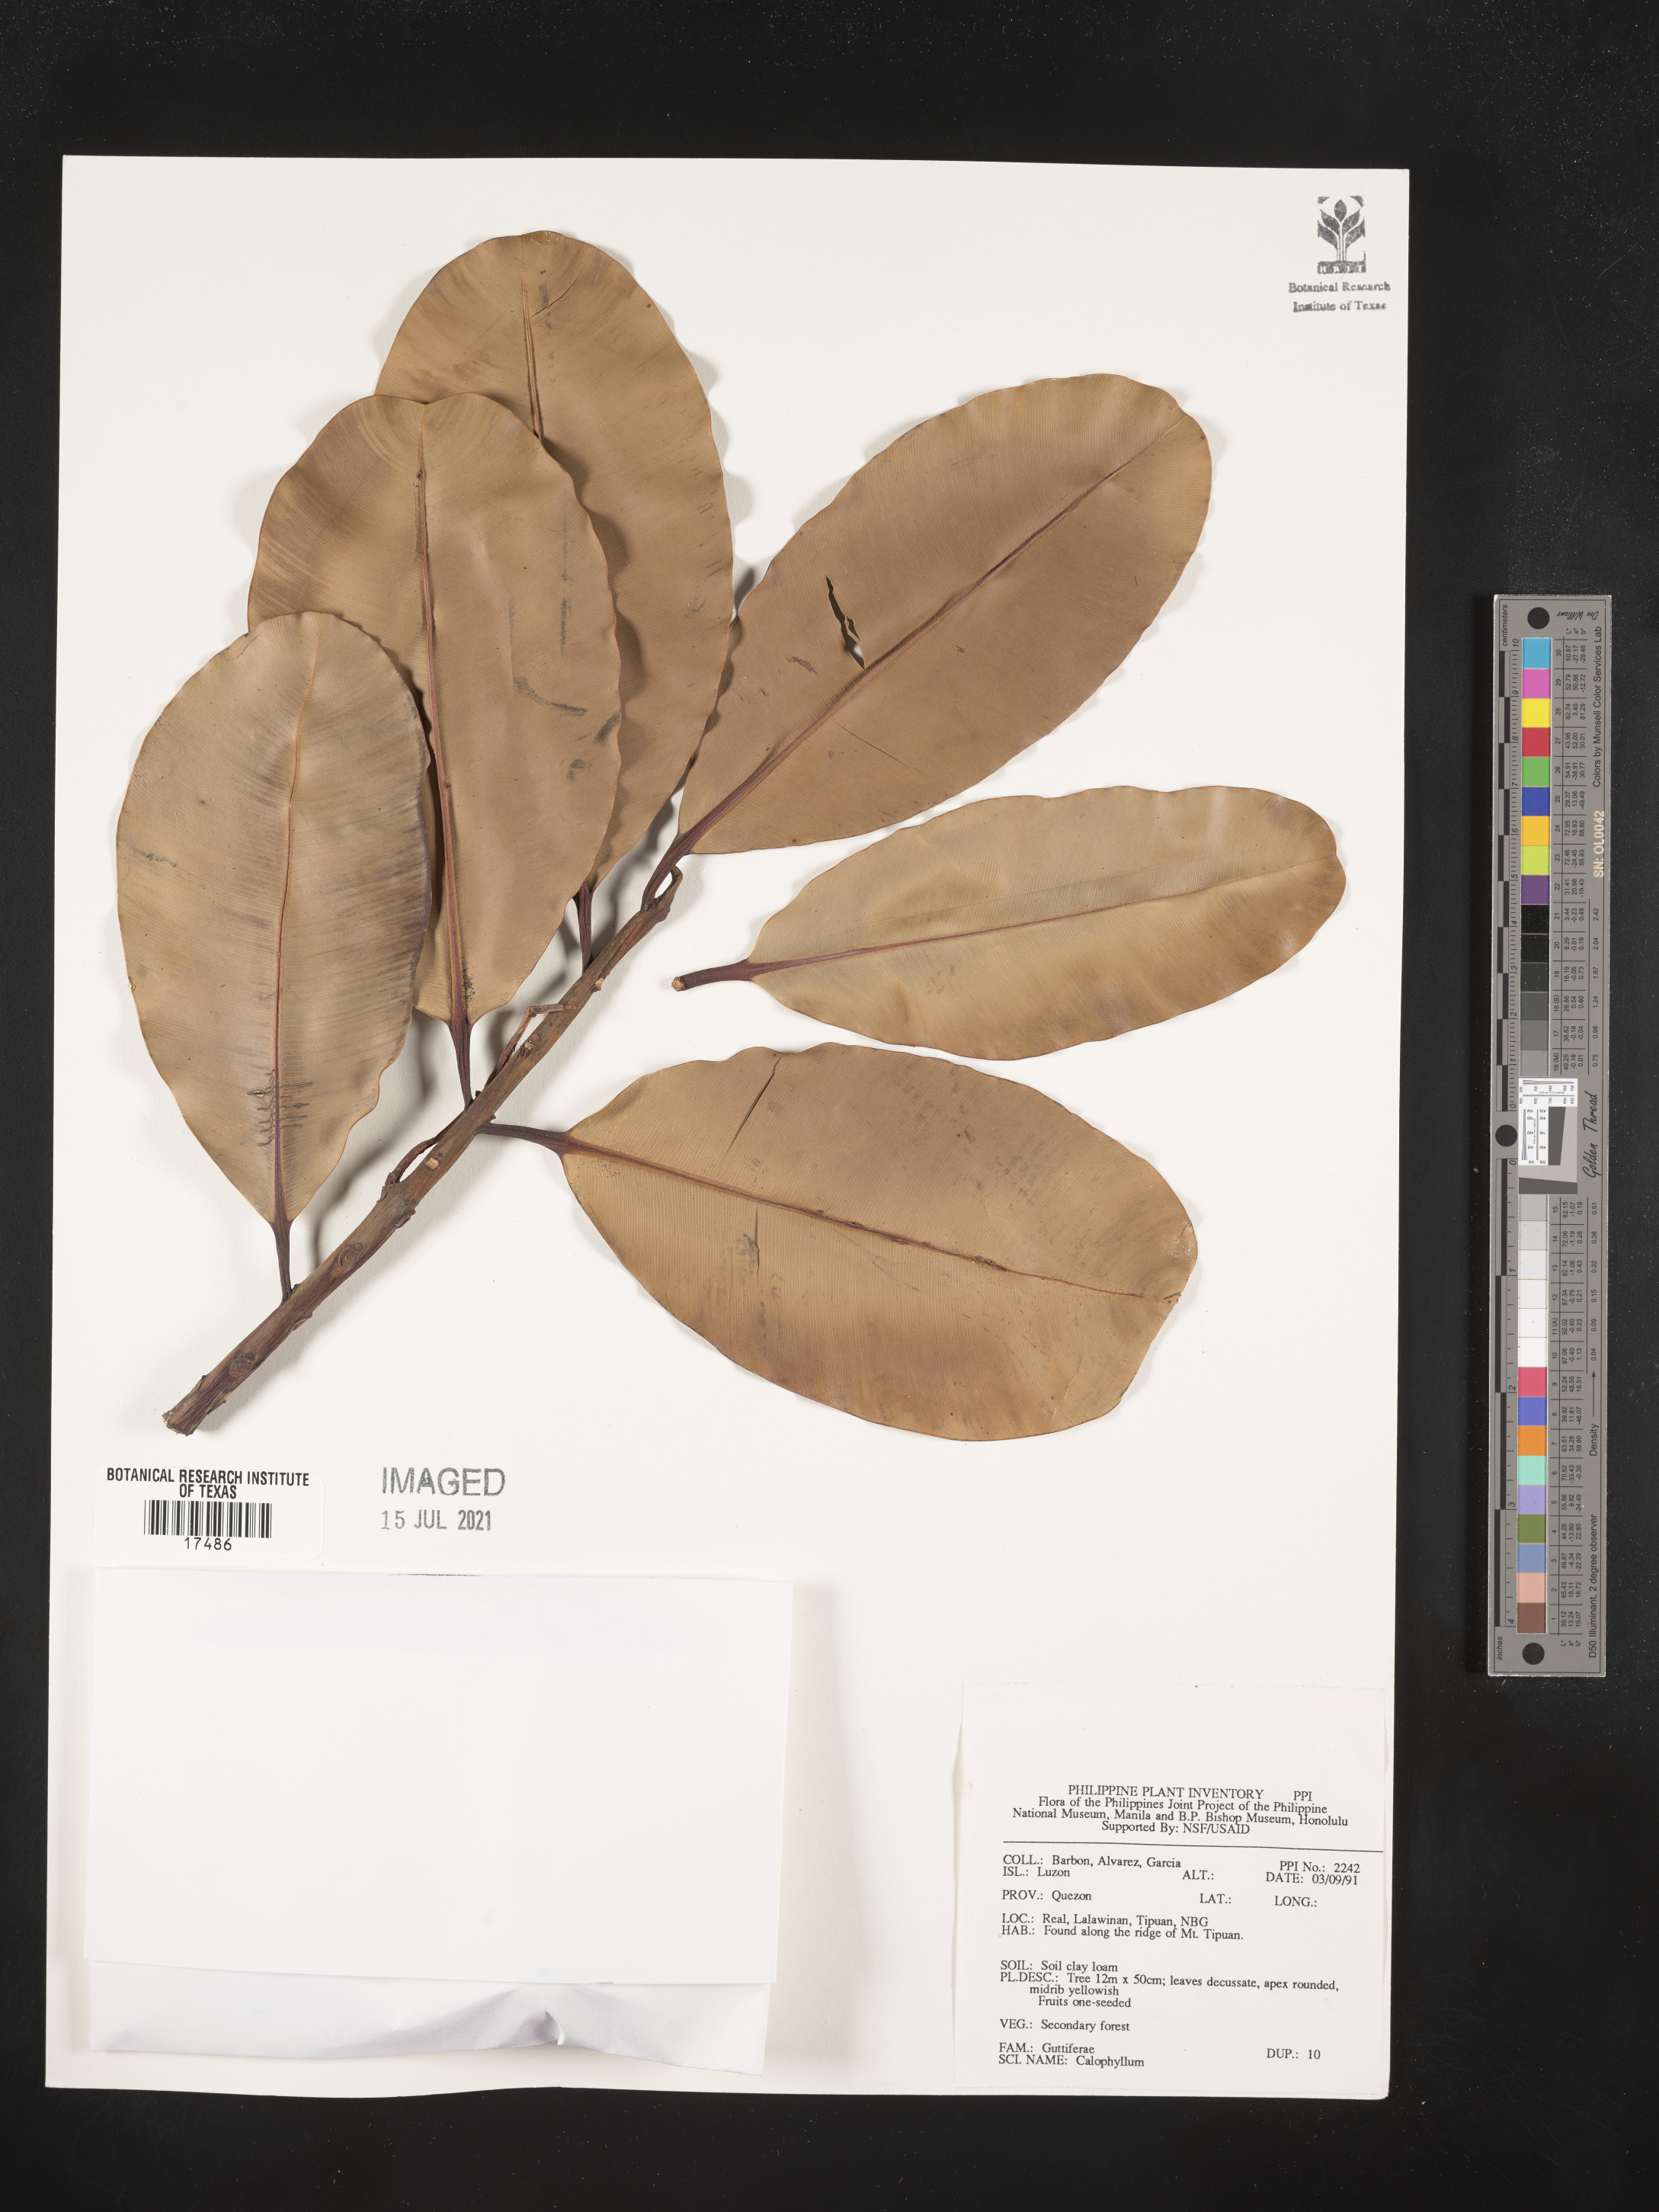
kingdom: Plantae
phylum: Tracheophyta
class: Magnoliopsida
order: Malpighiales
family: Calophyllaceae
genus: Calophyllum
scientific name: Calophyllum
